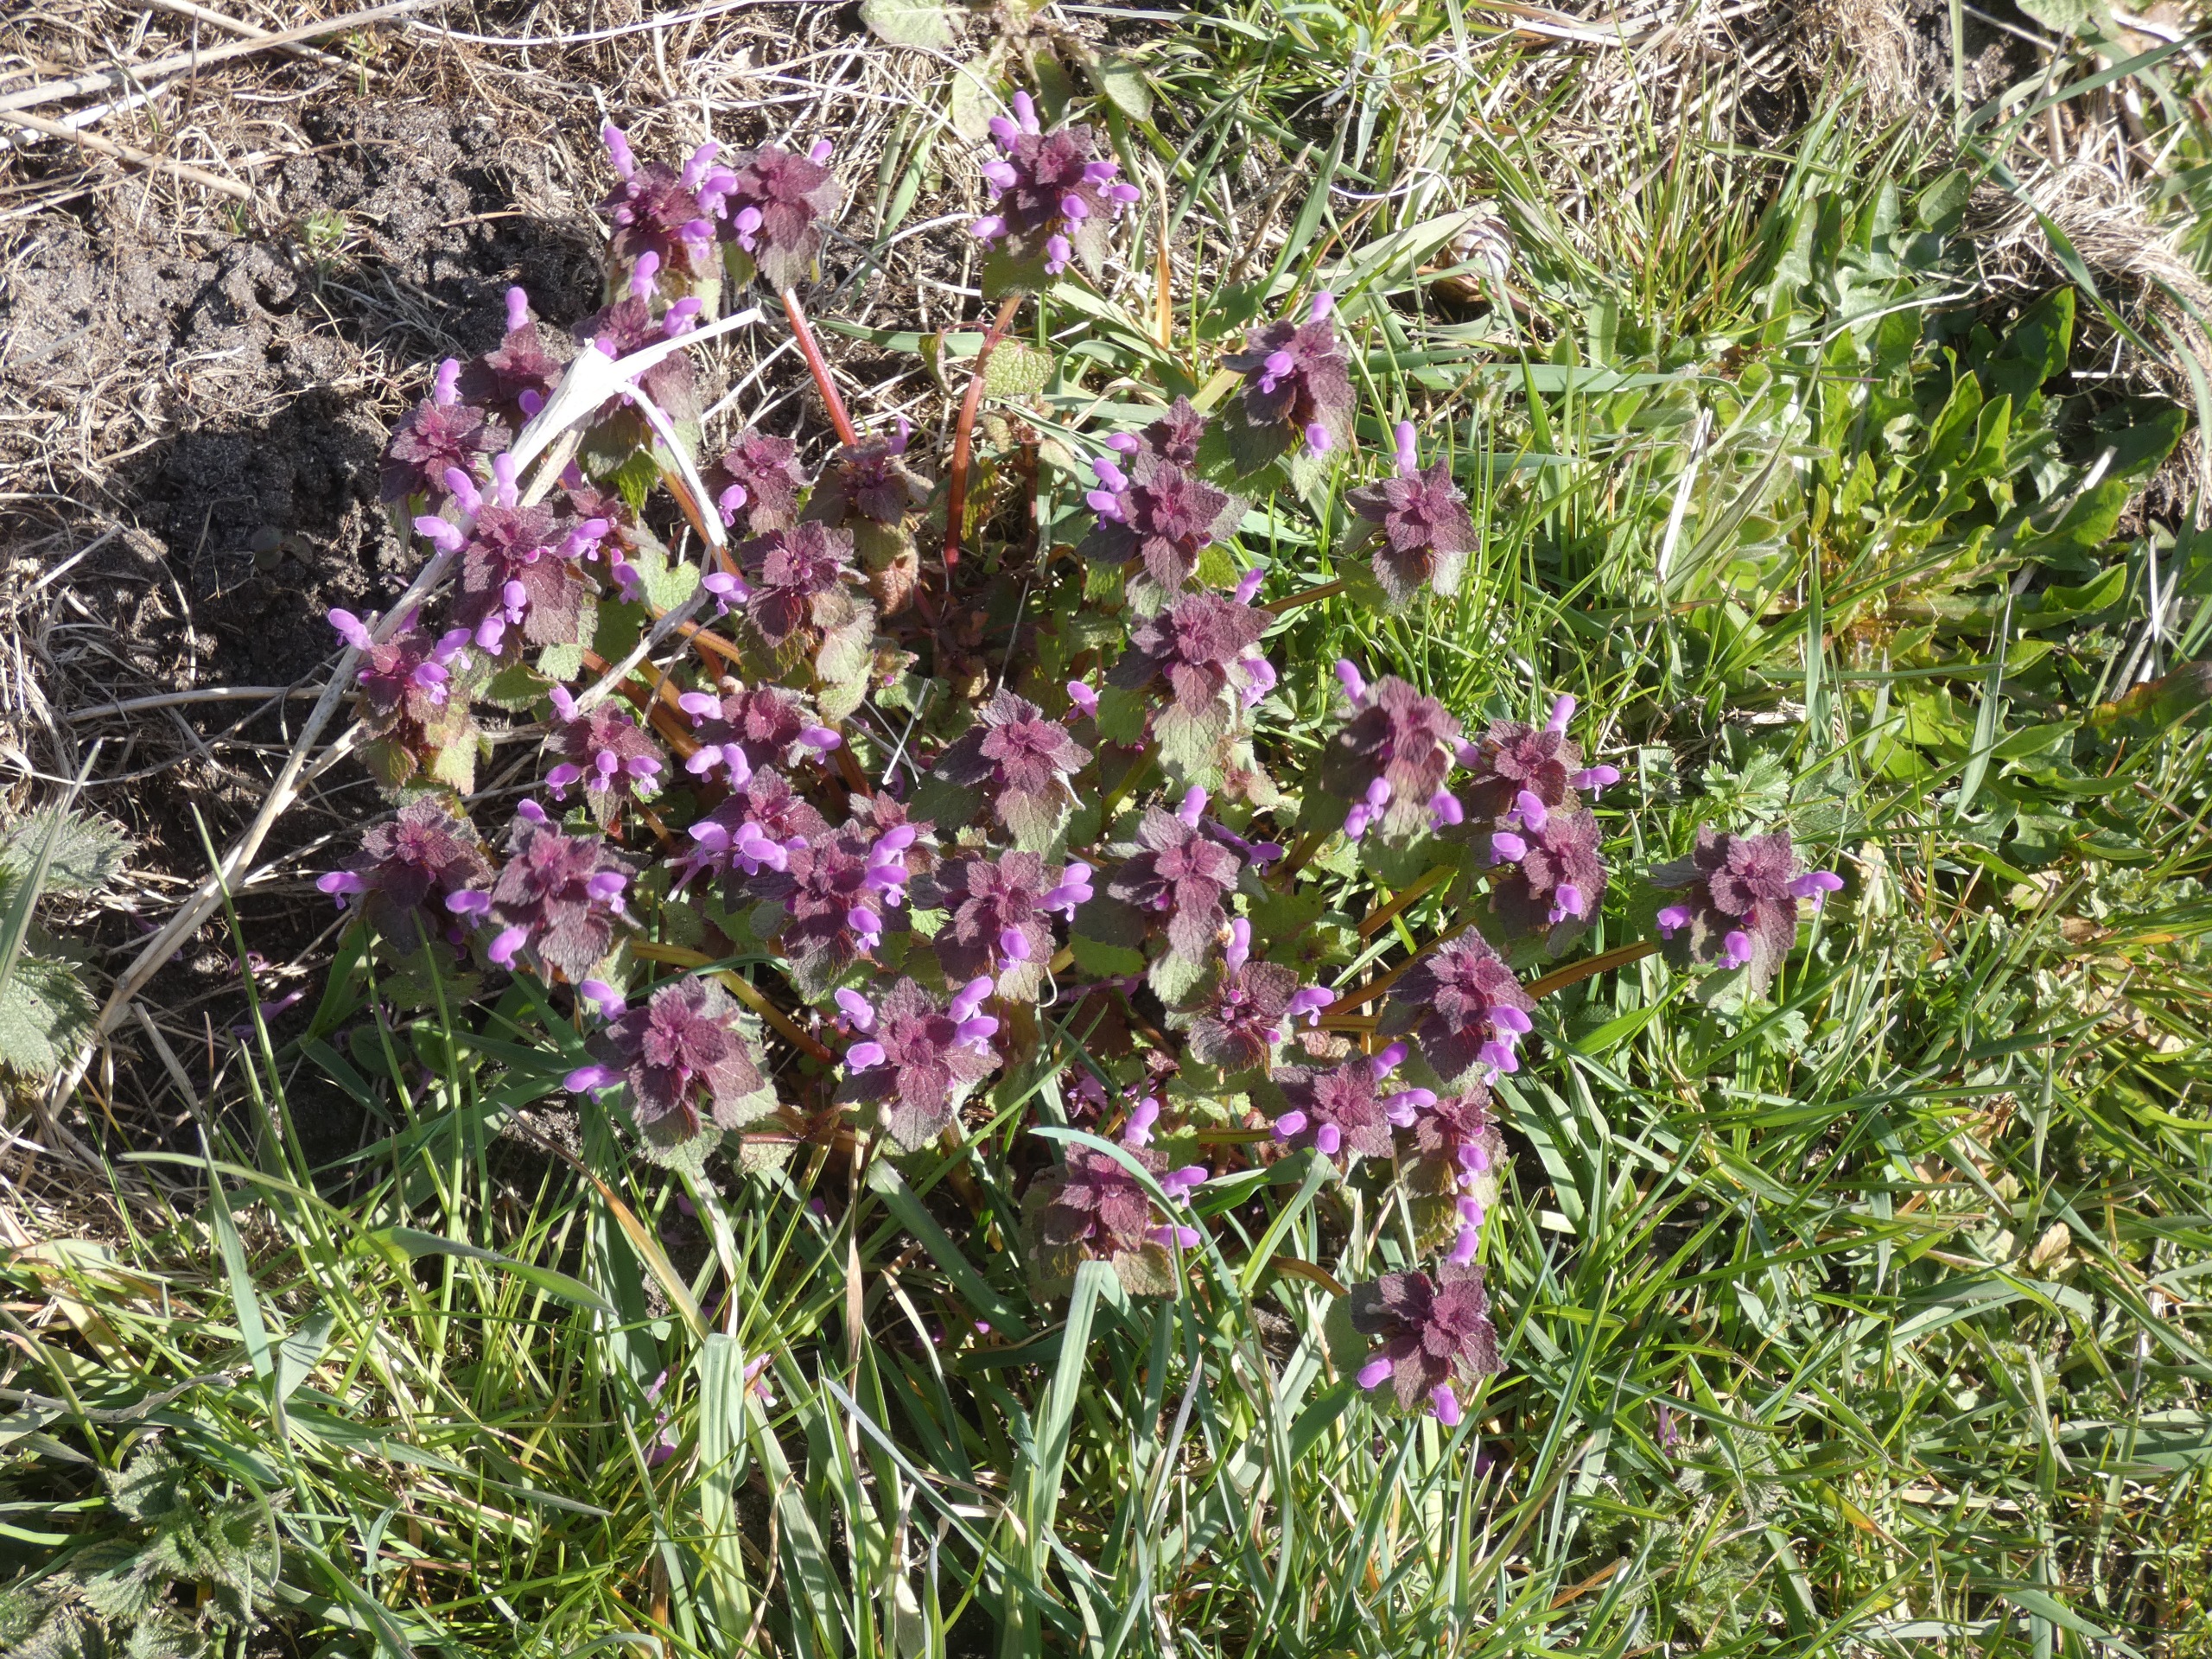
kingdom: Plantae
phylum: Tracheophyta
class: Magnoliopsida
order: Lamiales
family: Lamiaceae
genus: Lamium
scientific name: Lamium purpureum
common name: Rød tvetand
